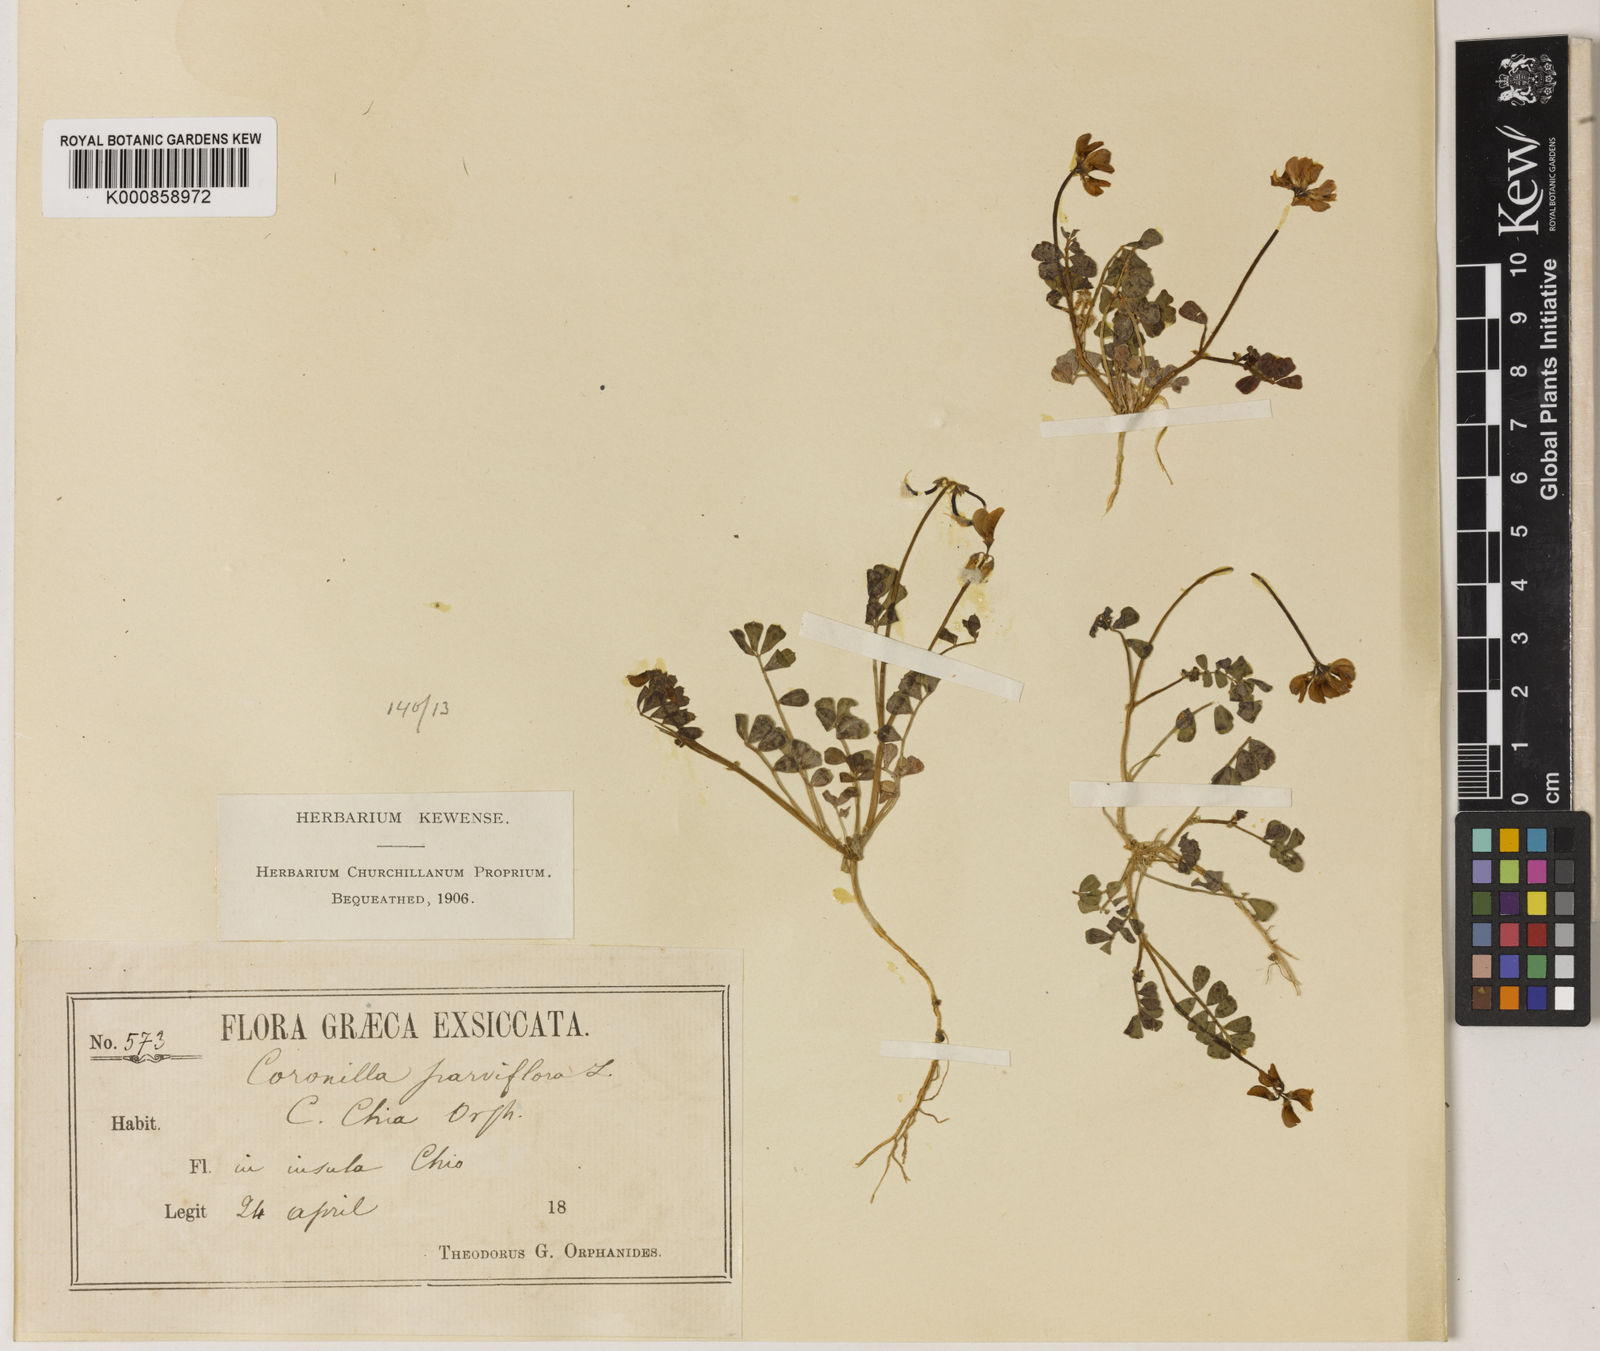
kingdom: Plantae
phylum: Tracheophyta
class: Magnoliopsida
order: Fabales
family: Fabaceae
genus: Coronilla
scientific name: Coronilla rostrata
